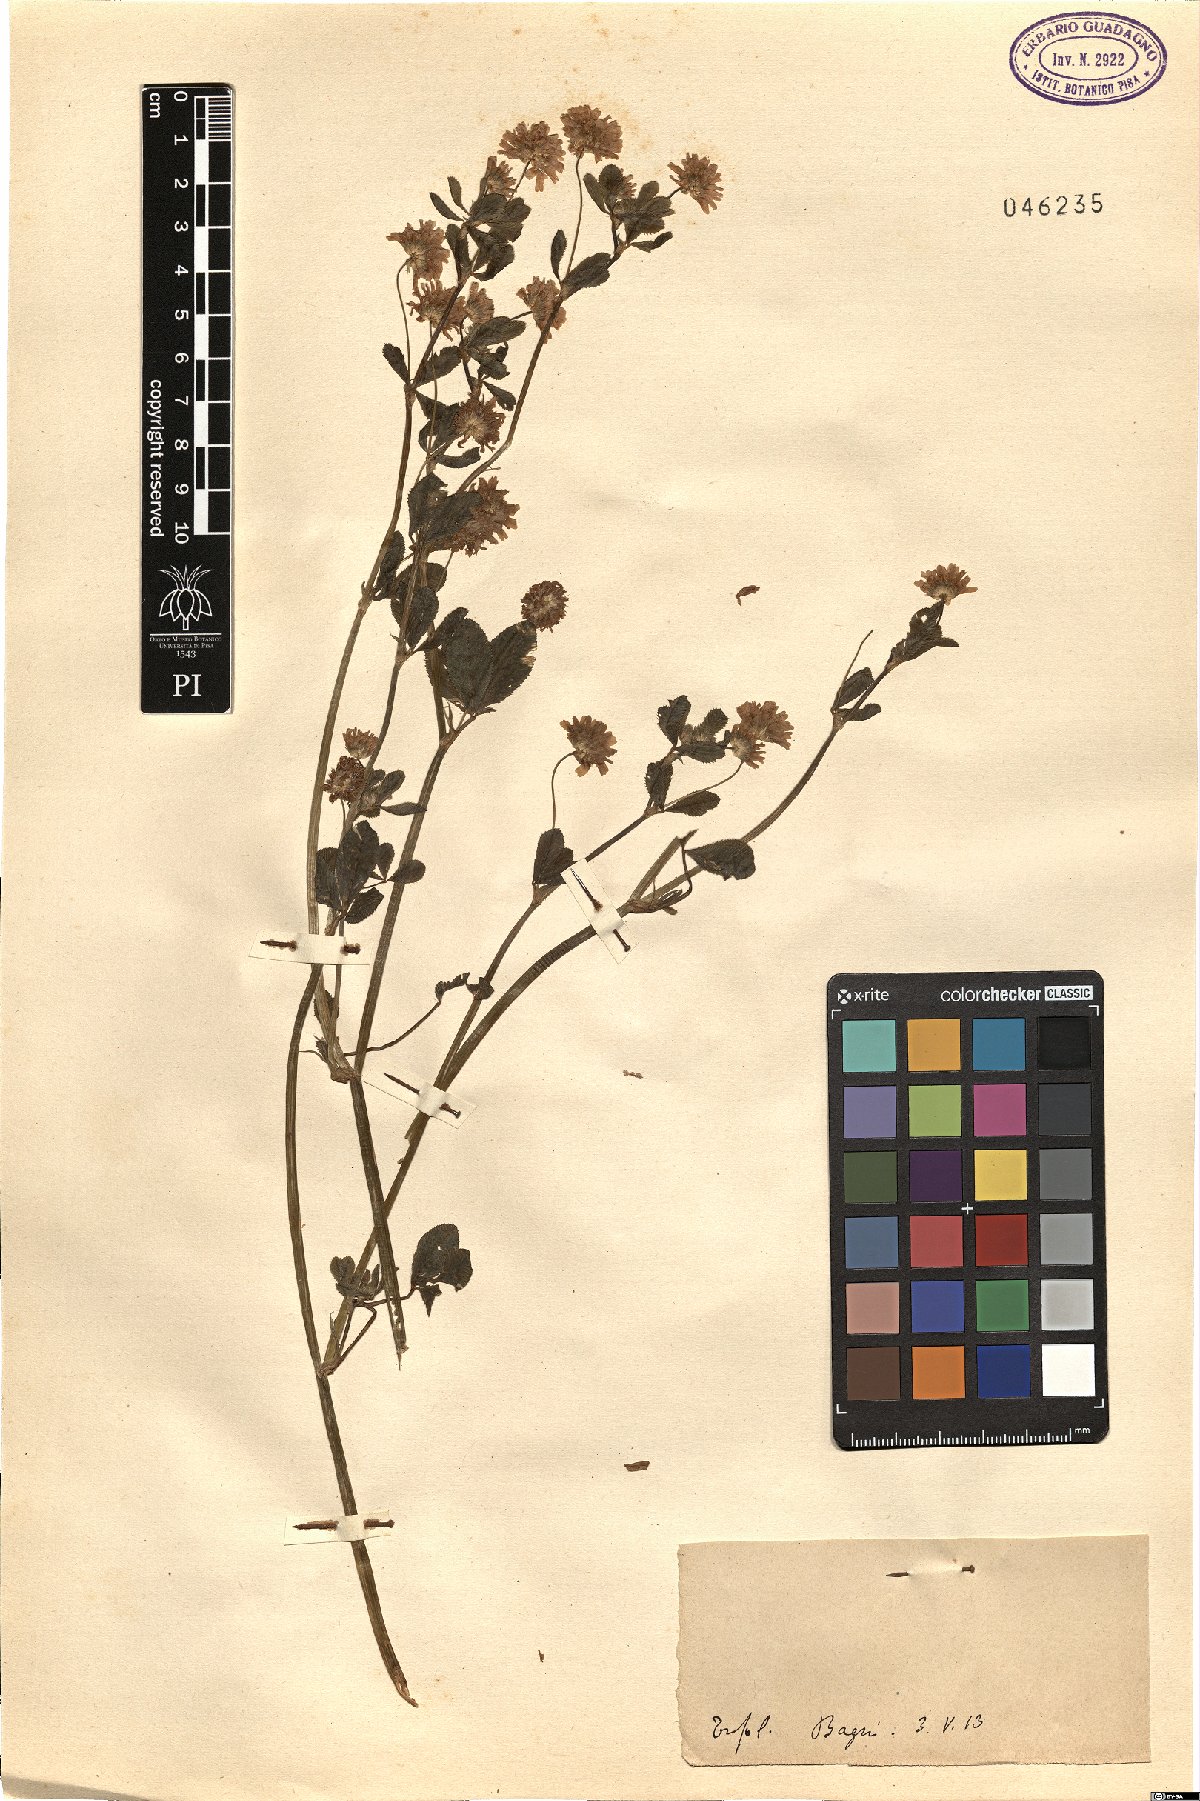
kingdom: Plantae
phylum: Tracheophyta
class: Magnoliopsida
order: Fabales
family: Fabaceae
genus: Trifolium
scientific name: Trifolium
